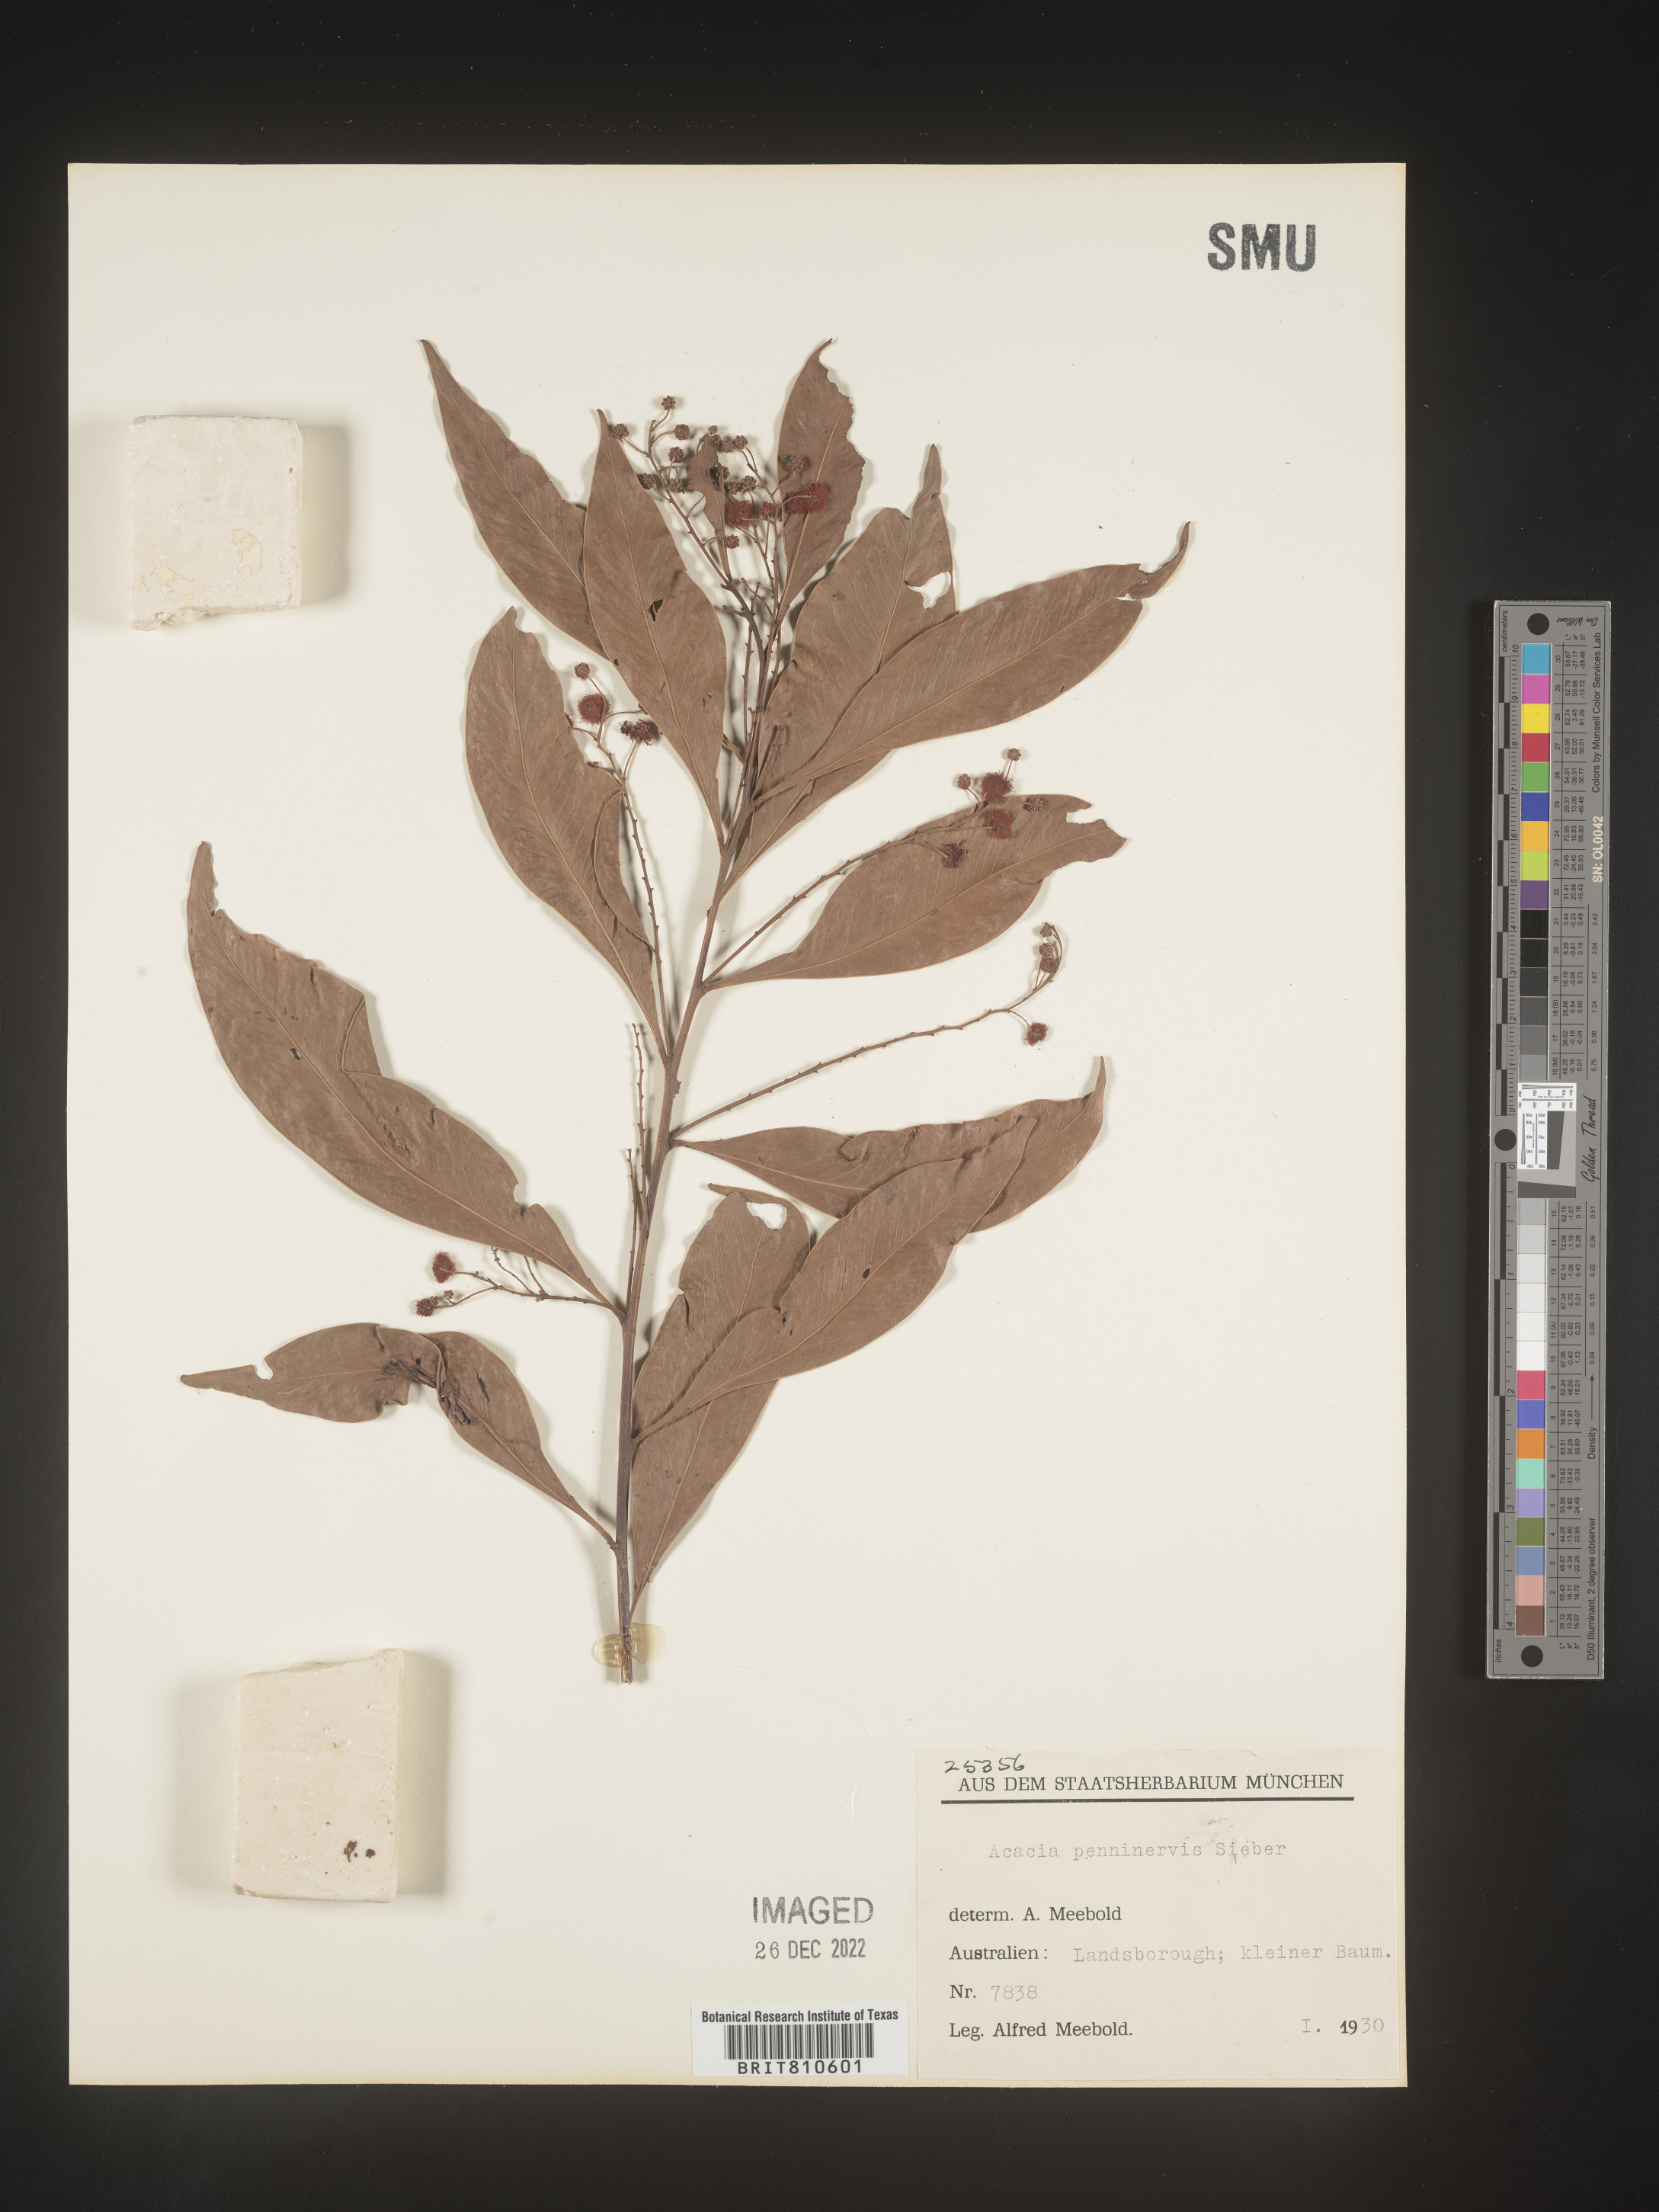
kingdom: Plantae
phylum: Tracheophyta
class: Magnoliopsida
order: Fabales
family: Fabaceae
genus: Acacia
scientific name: Acacia
